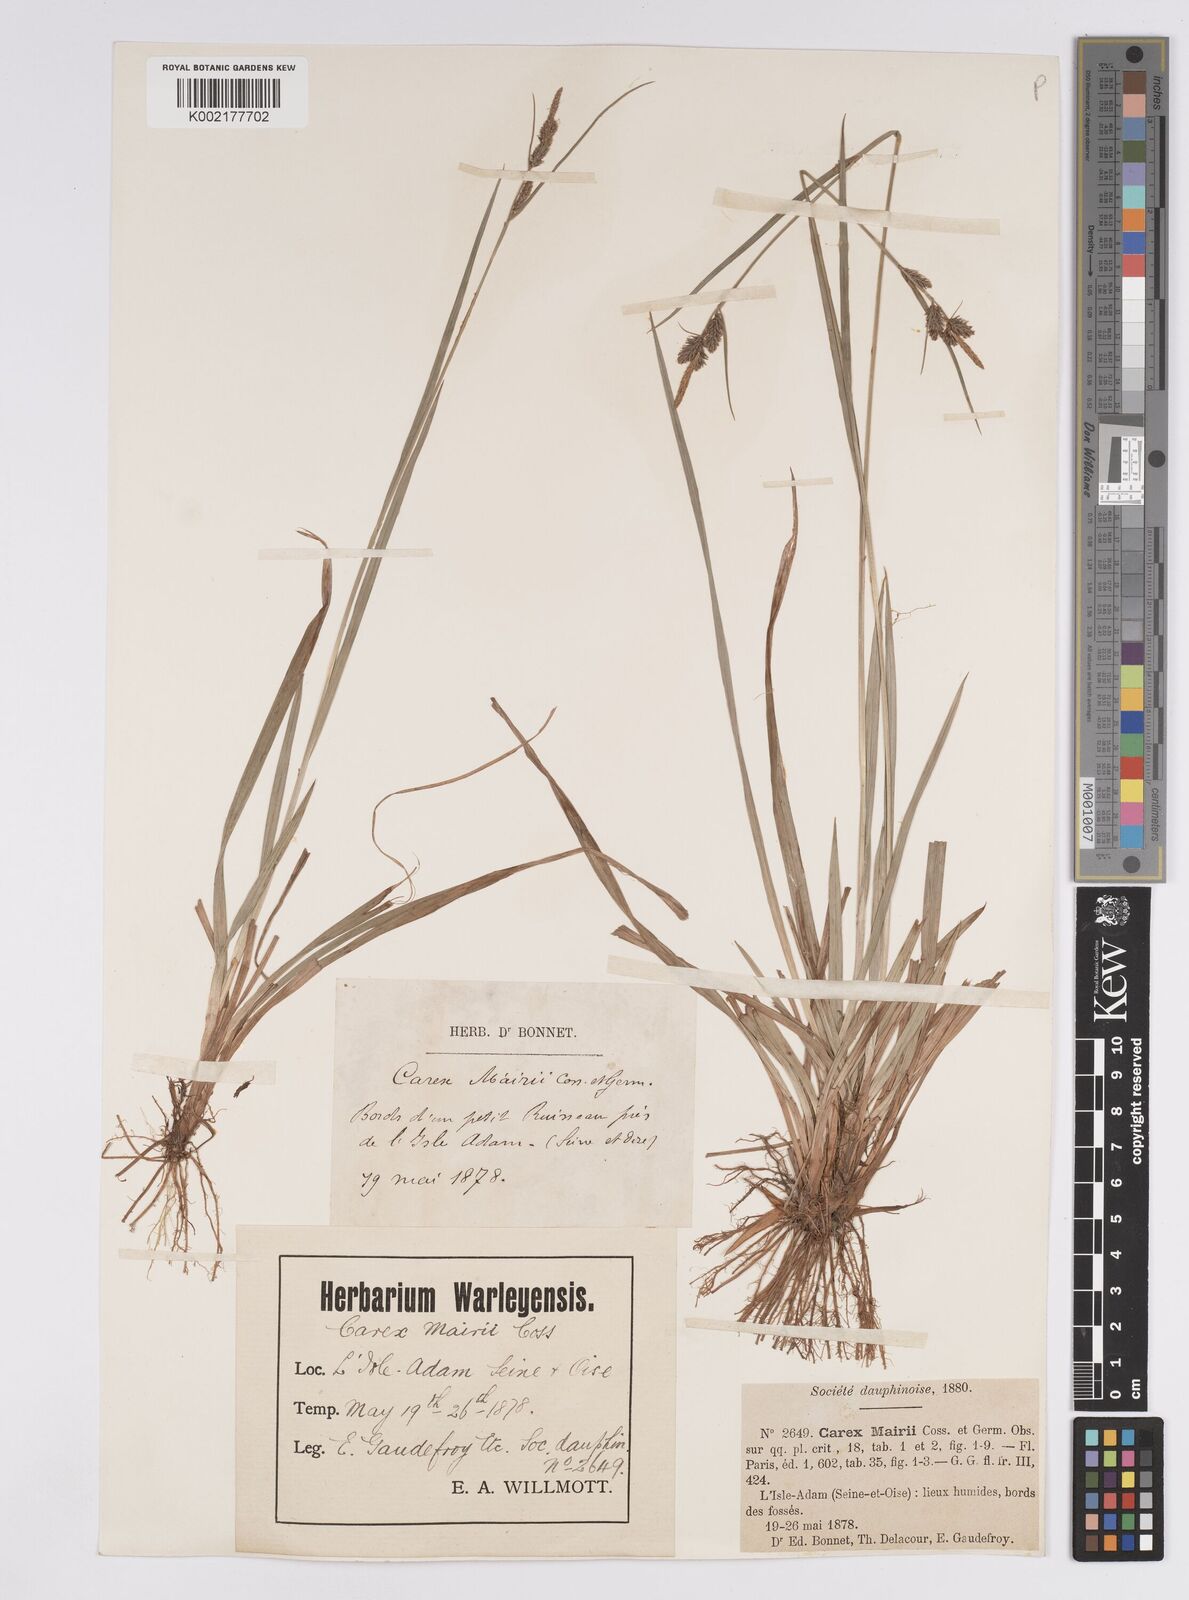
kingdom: Plantae
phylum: Tracheophyta
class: Liliopsida
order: Poales
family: Cyperaceae
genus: Carex
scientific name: Carex mairei
